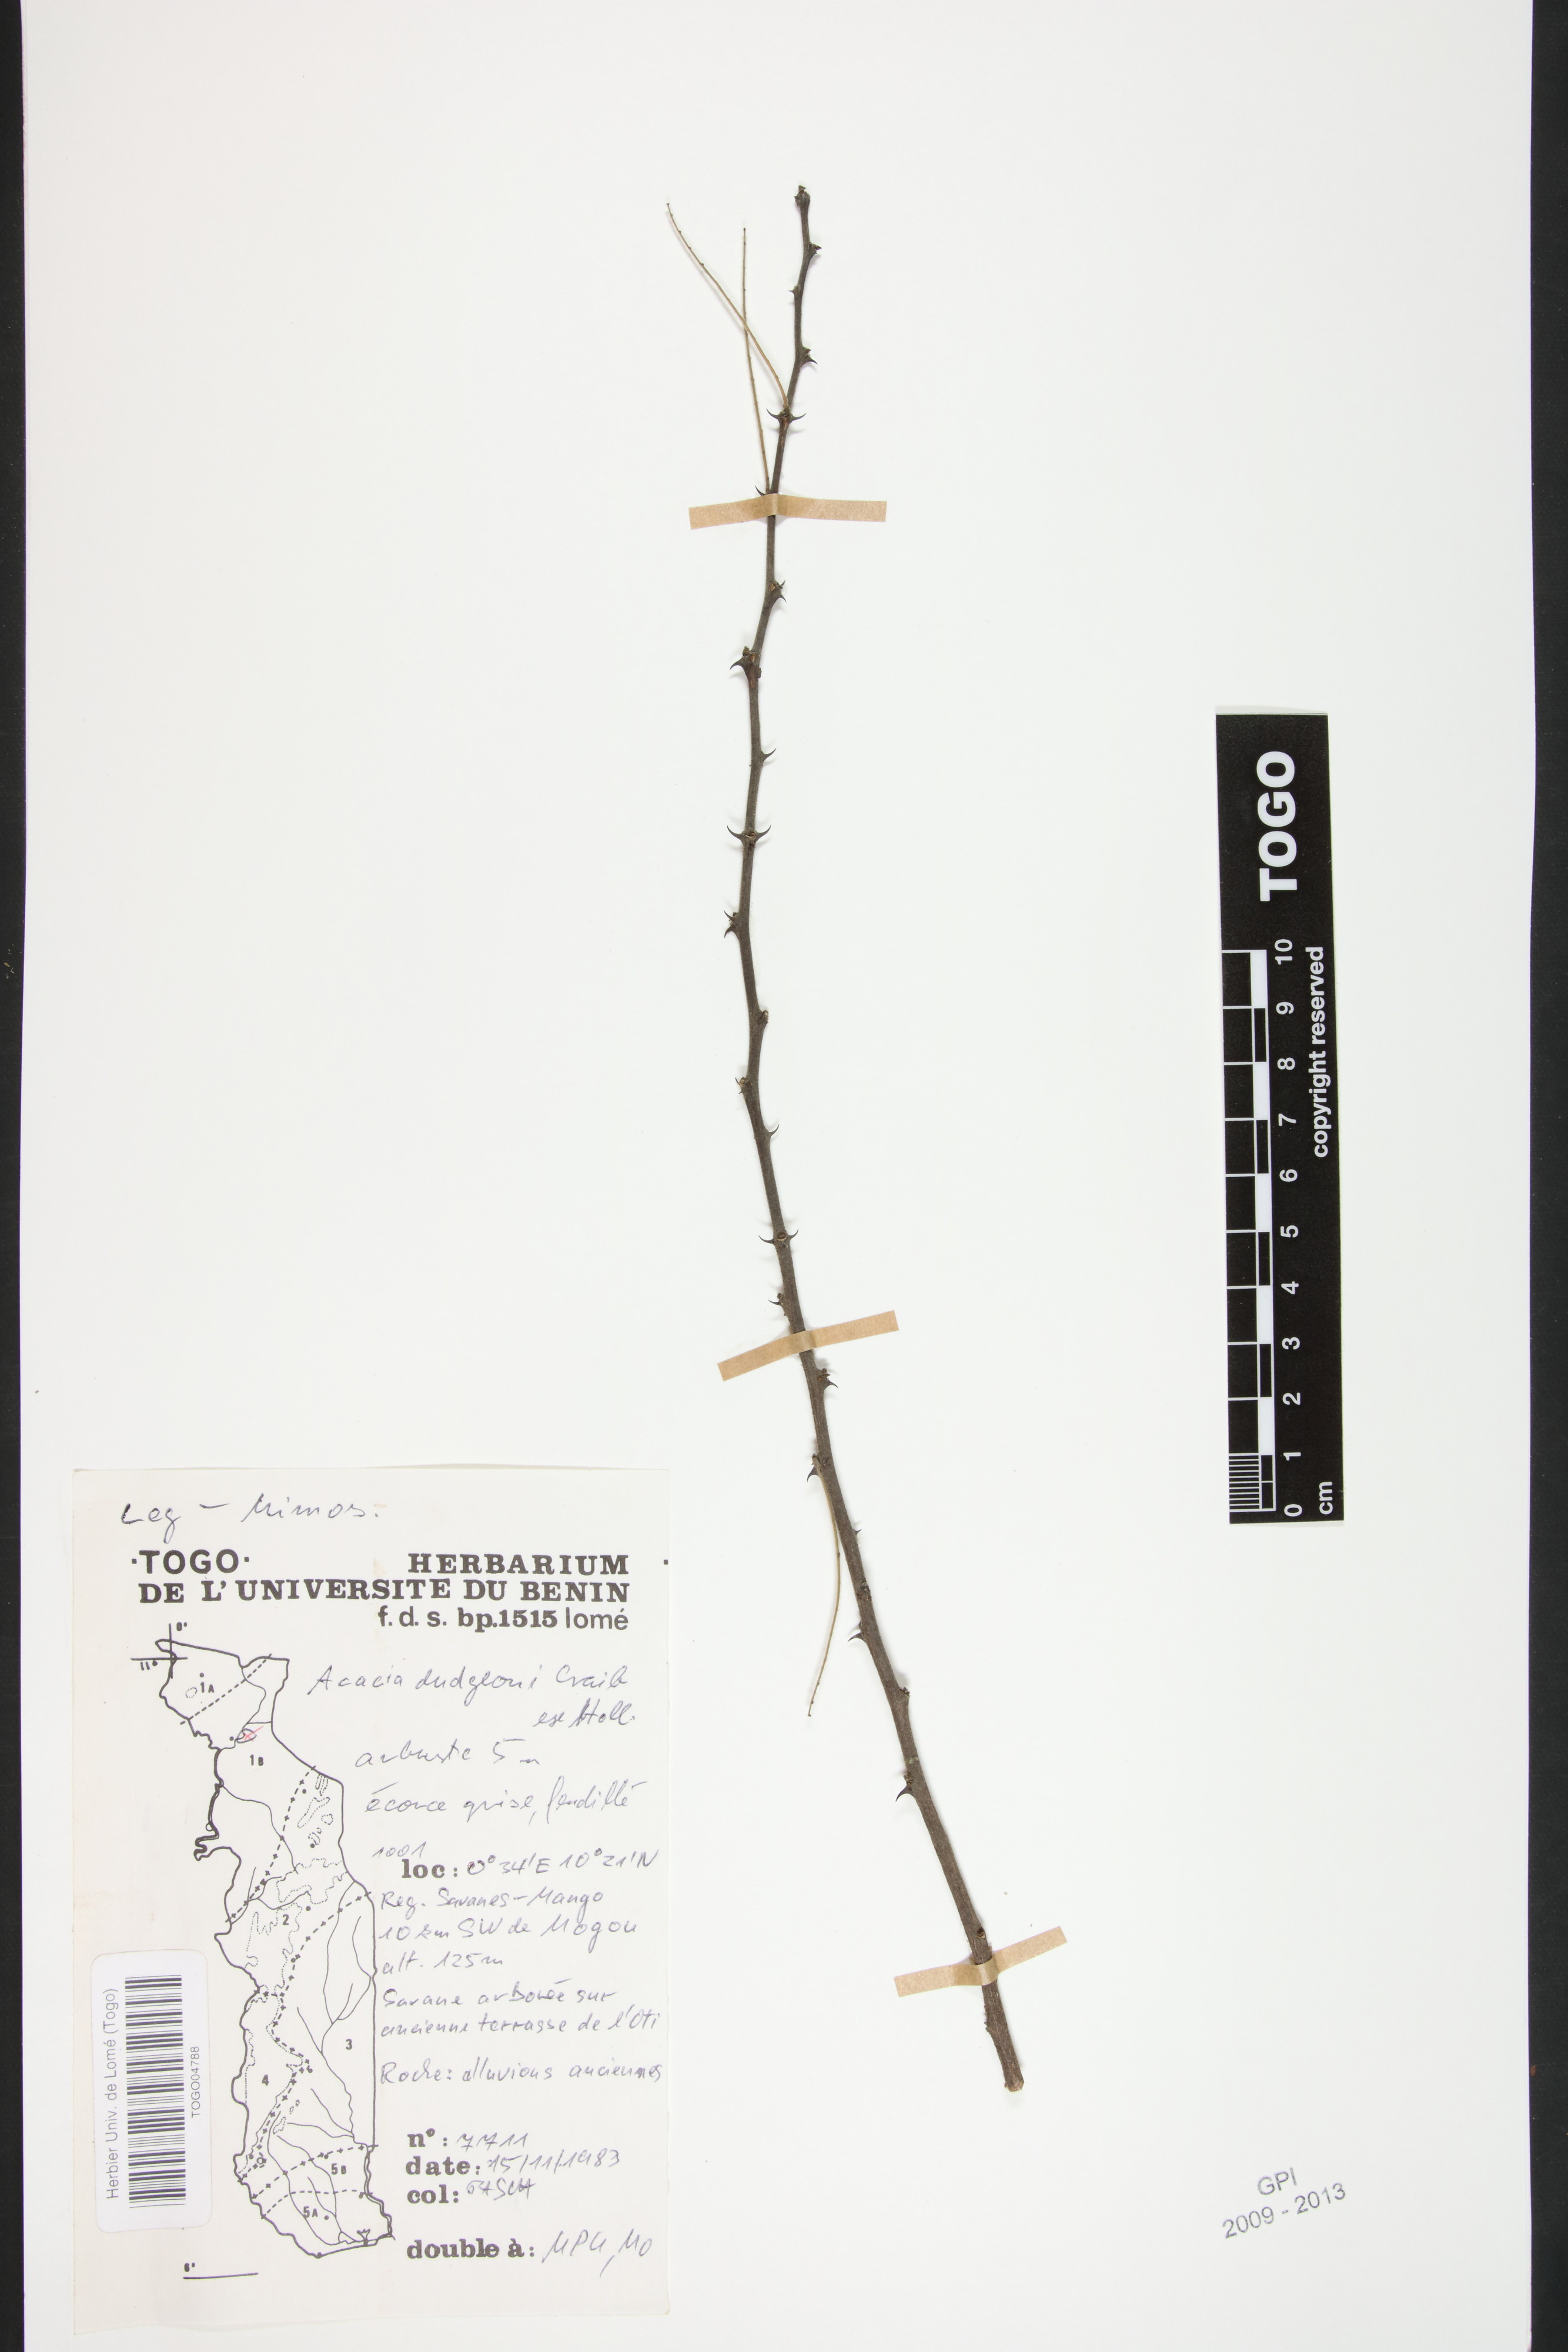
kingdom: Plantae
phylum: Tracheophyta
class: Magnoliopsida
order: Fabales
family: Fabaceae
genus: Senegalia
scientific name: Senegalia dudgeonii
